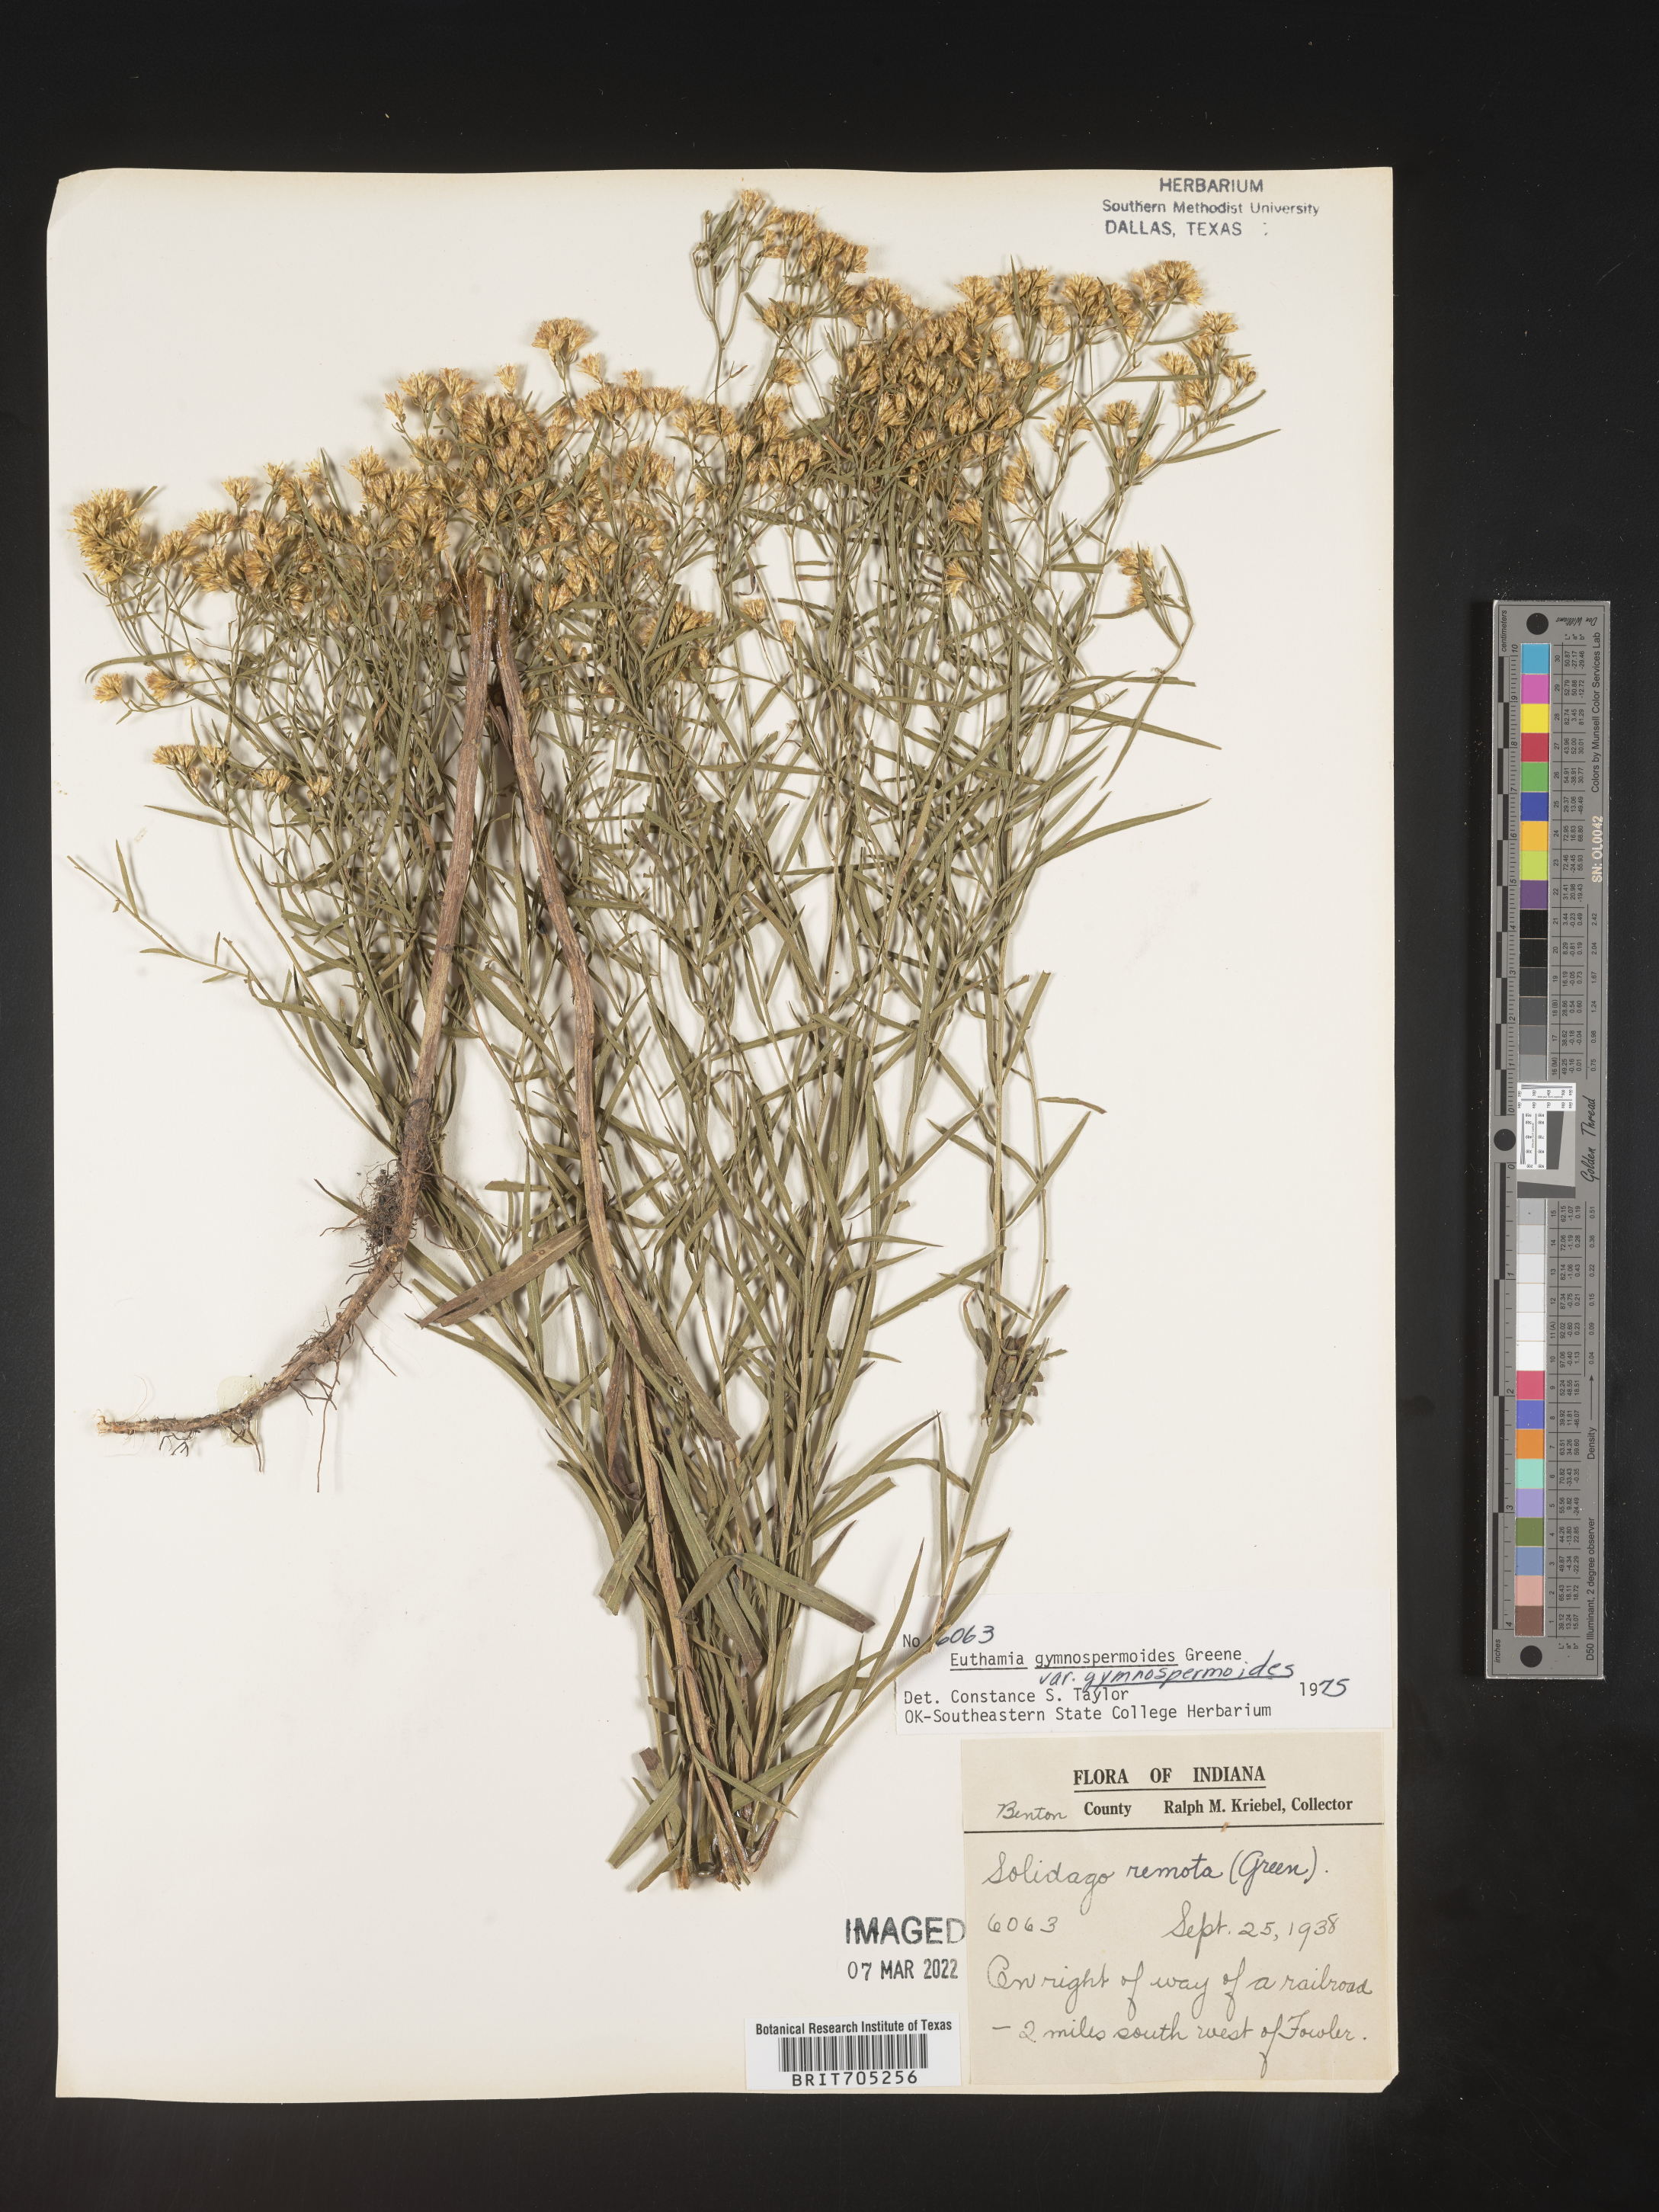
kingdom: Plantae
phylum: Tracheophyta
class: Magnoliopsida
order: Asterales
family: Asteraceae
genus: Euthamia
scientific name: Euthamia gymnospermoides
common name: Great plains goldentop
